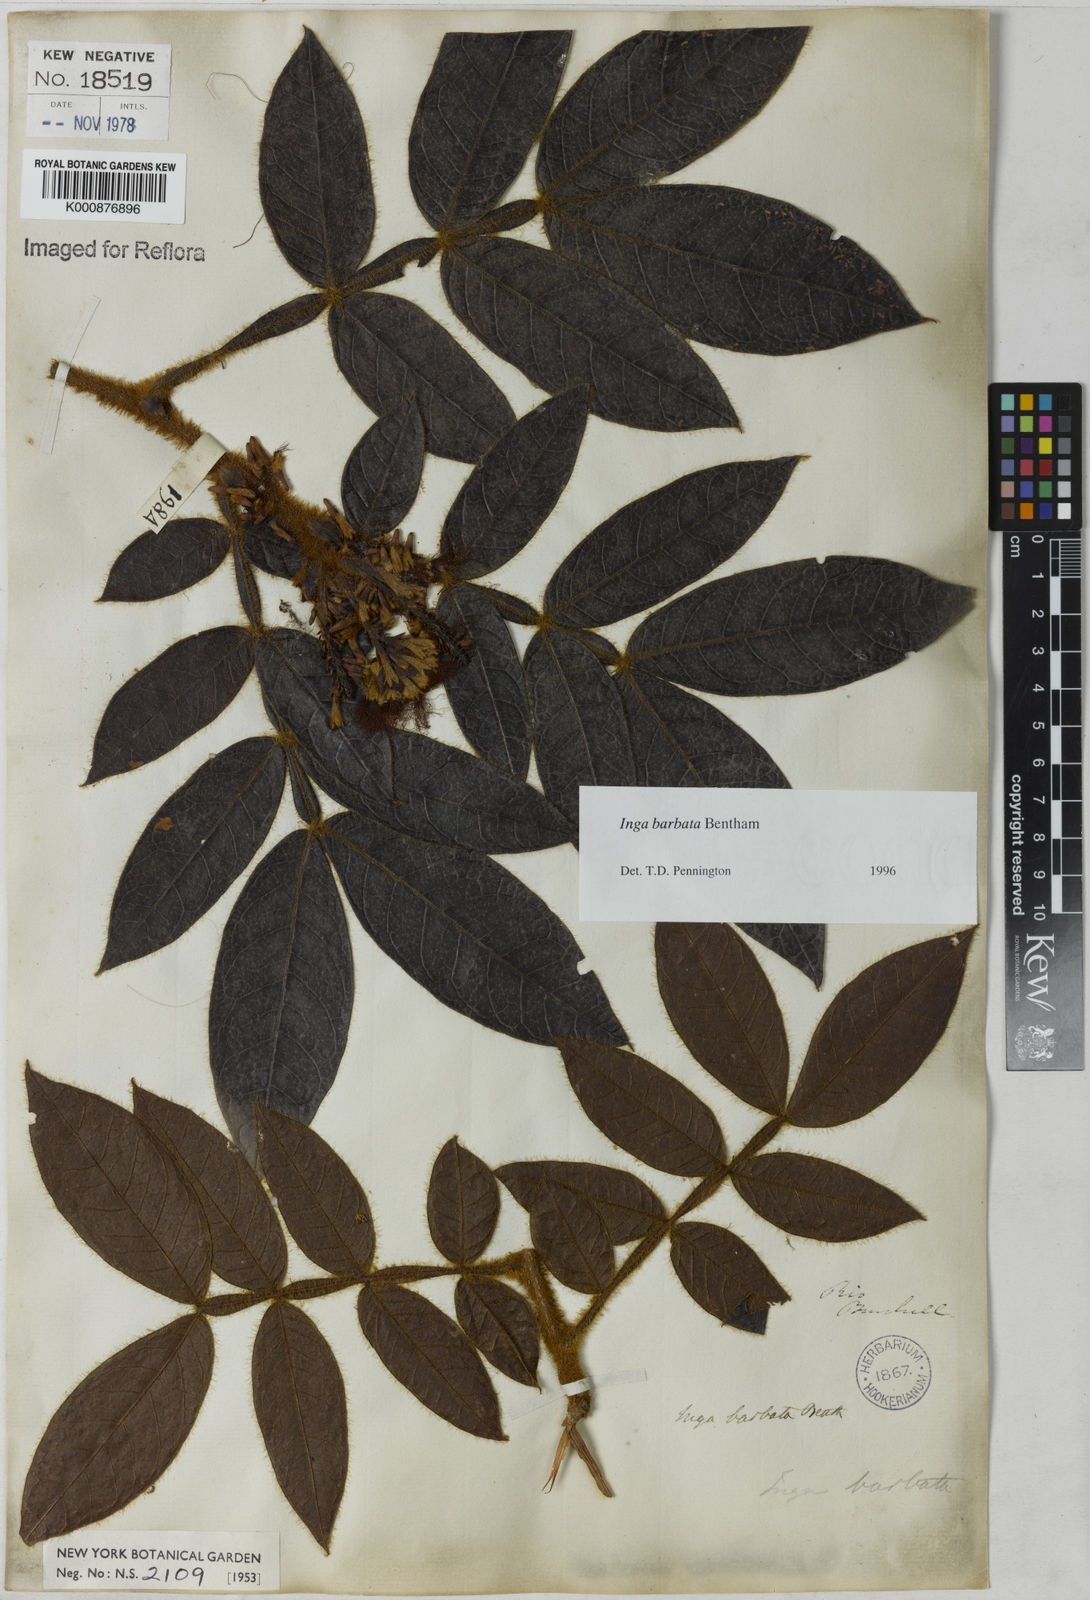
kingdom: Plantae
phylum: Tracheophyta
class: Magnoliopsida
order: Fabales
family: Fabaceae
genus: Inga
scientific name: Inga barbata
